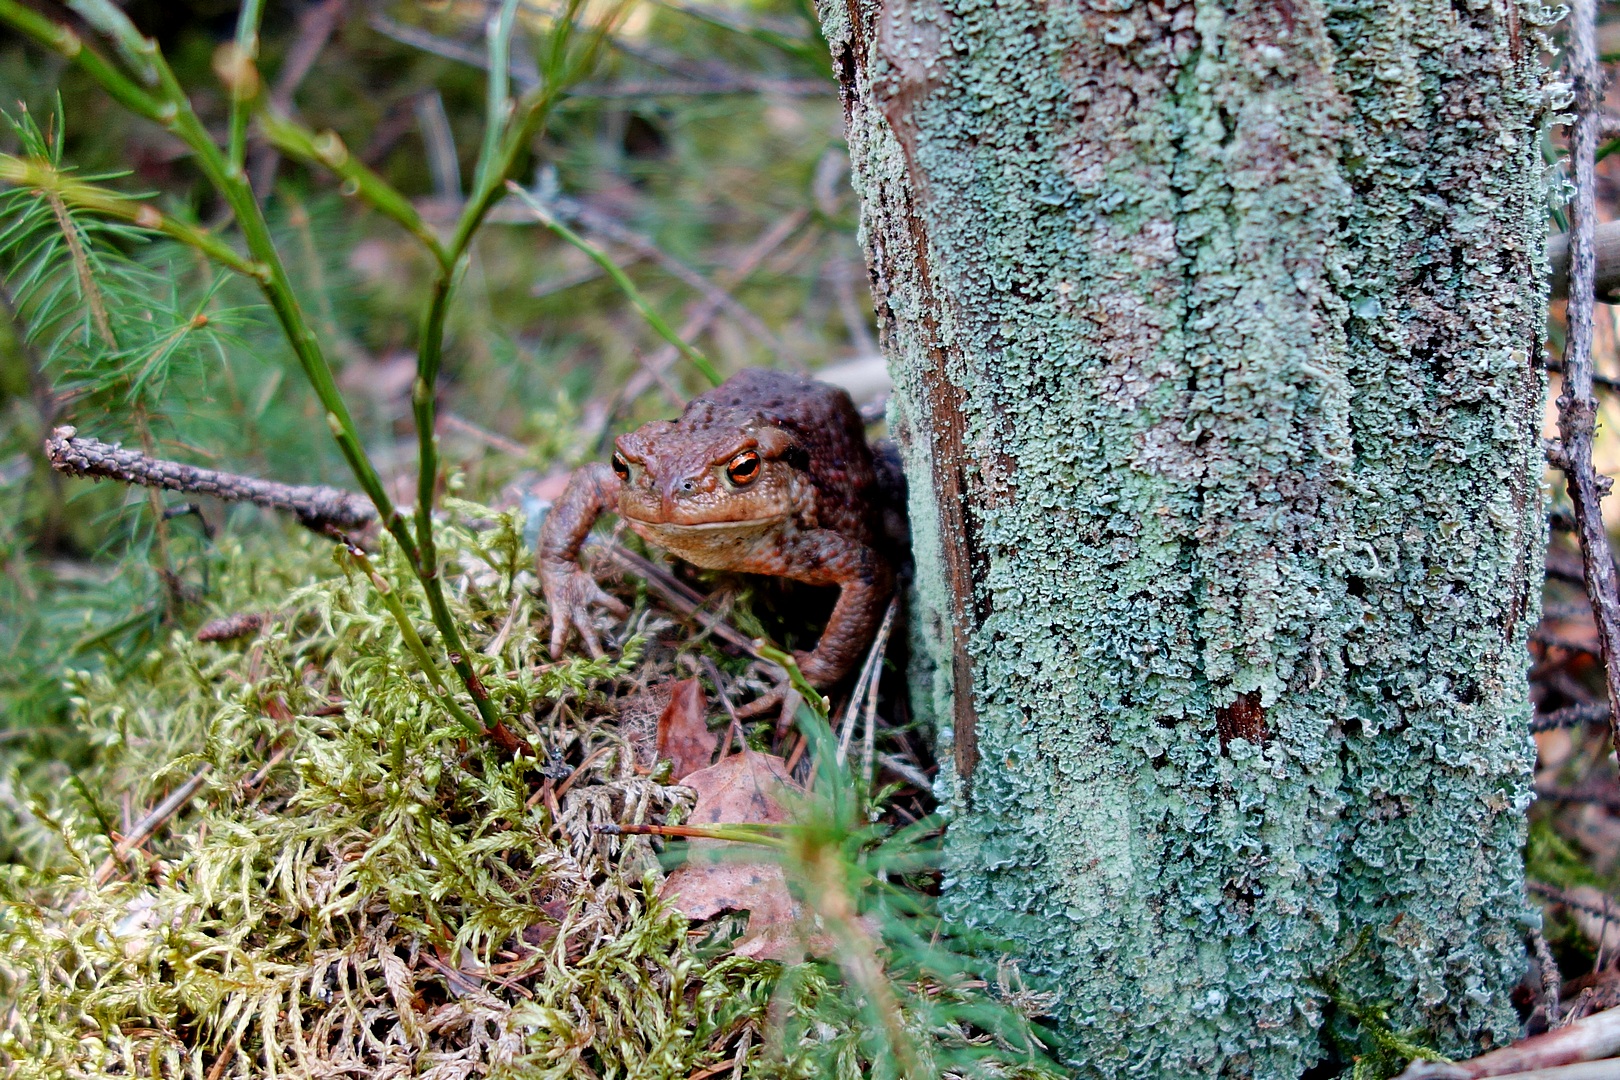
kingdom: Animalia
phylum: Chordata
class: Amphibia
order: Anura
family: Bufonidae
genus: Bufo
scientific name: Bufo bufo
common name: Common toad
